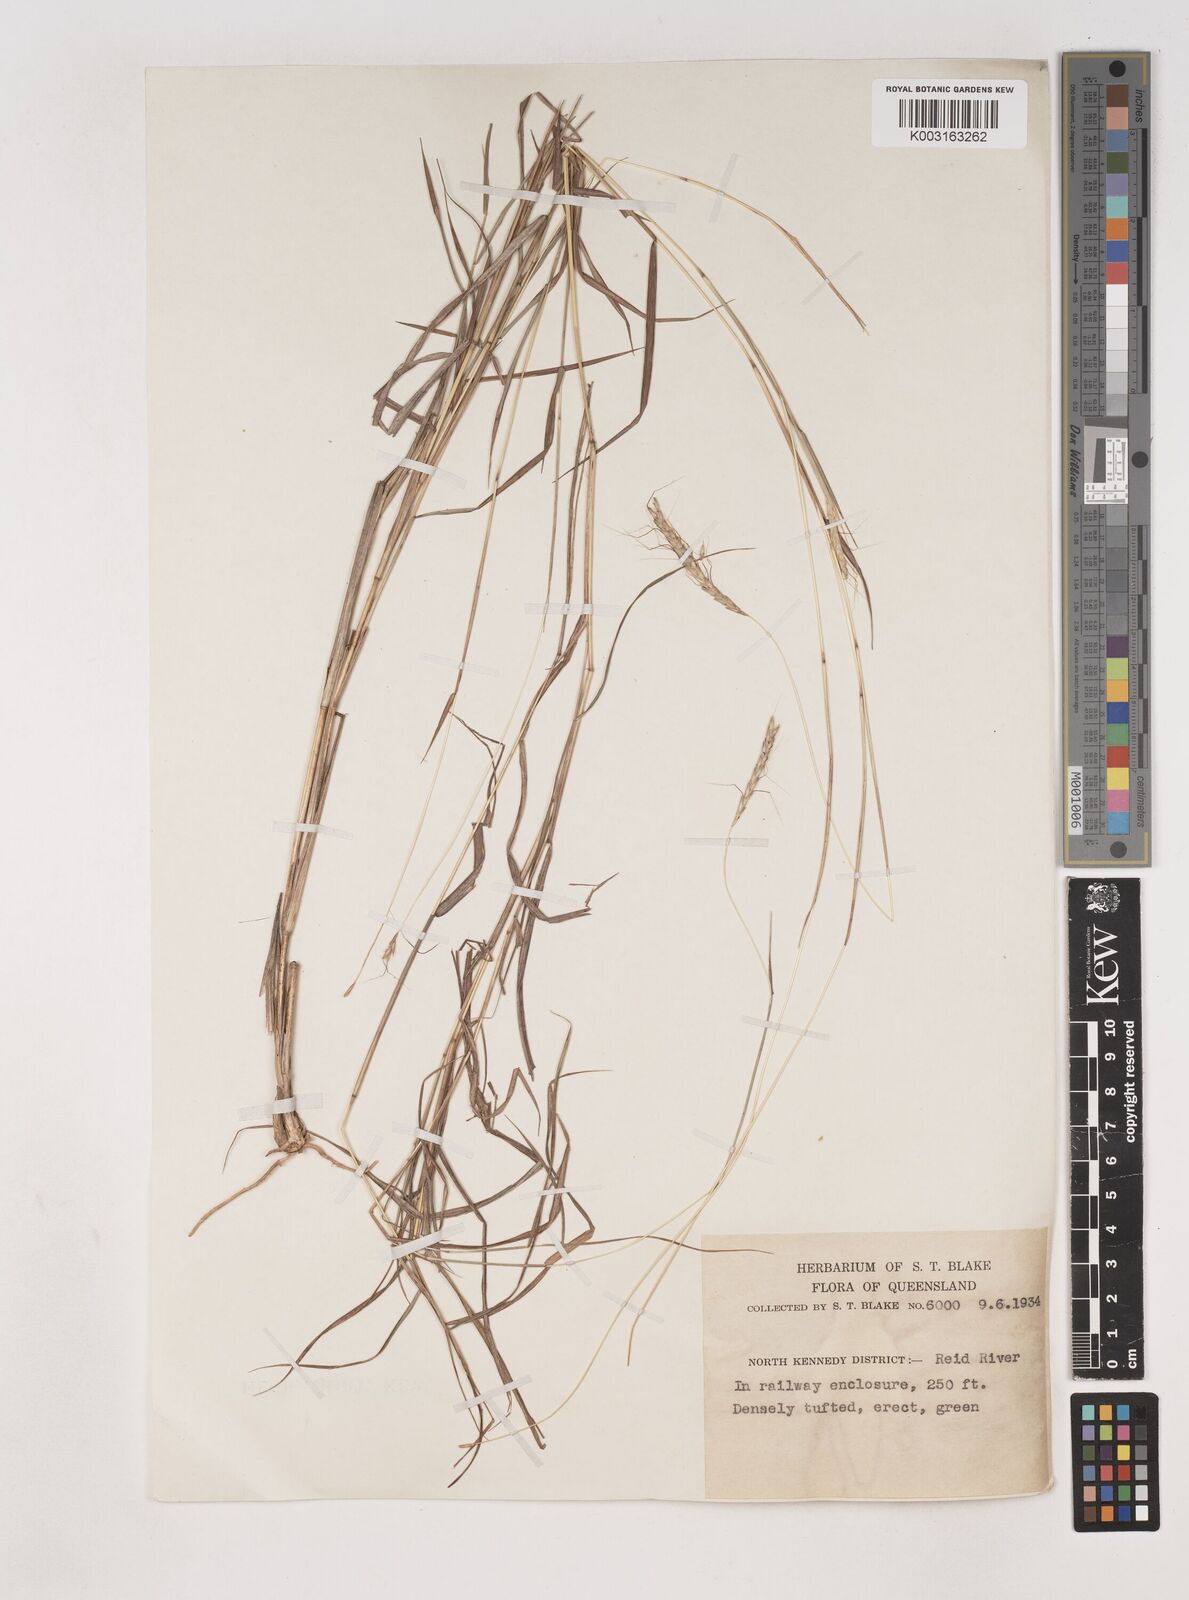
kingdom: Plantae
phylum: Tracheophyta
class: Liliopsida
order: Poales
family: Poaceae
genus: Dichanthium
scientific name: Dichanthium fecundum
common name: Bundle-bundle
